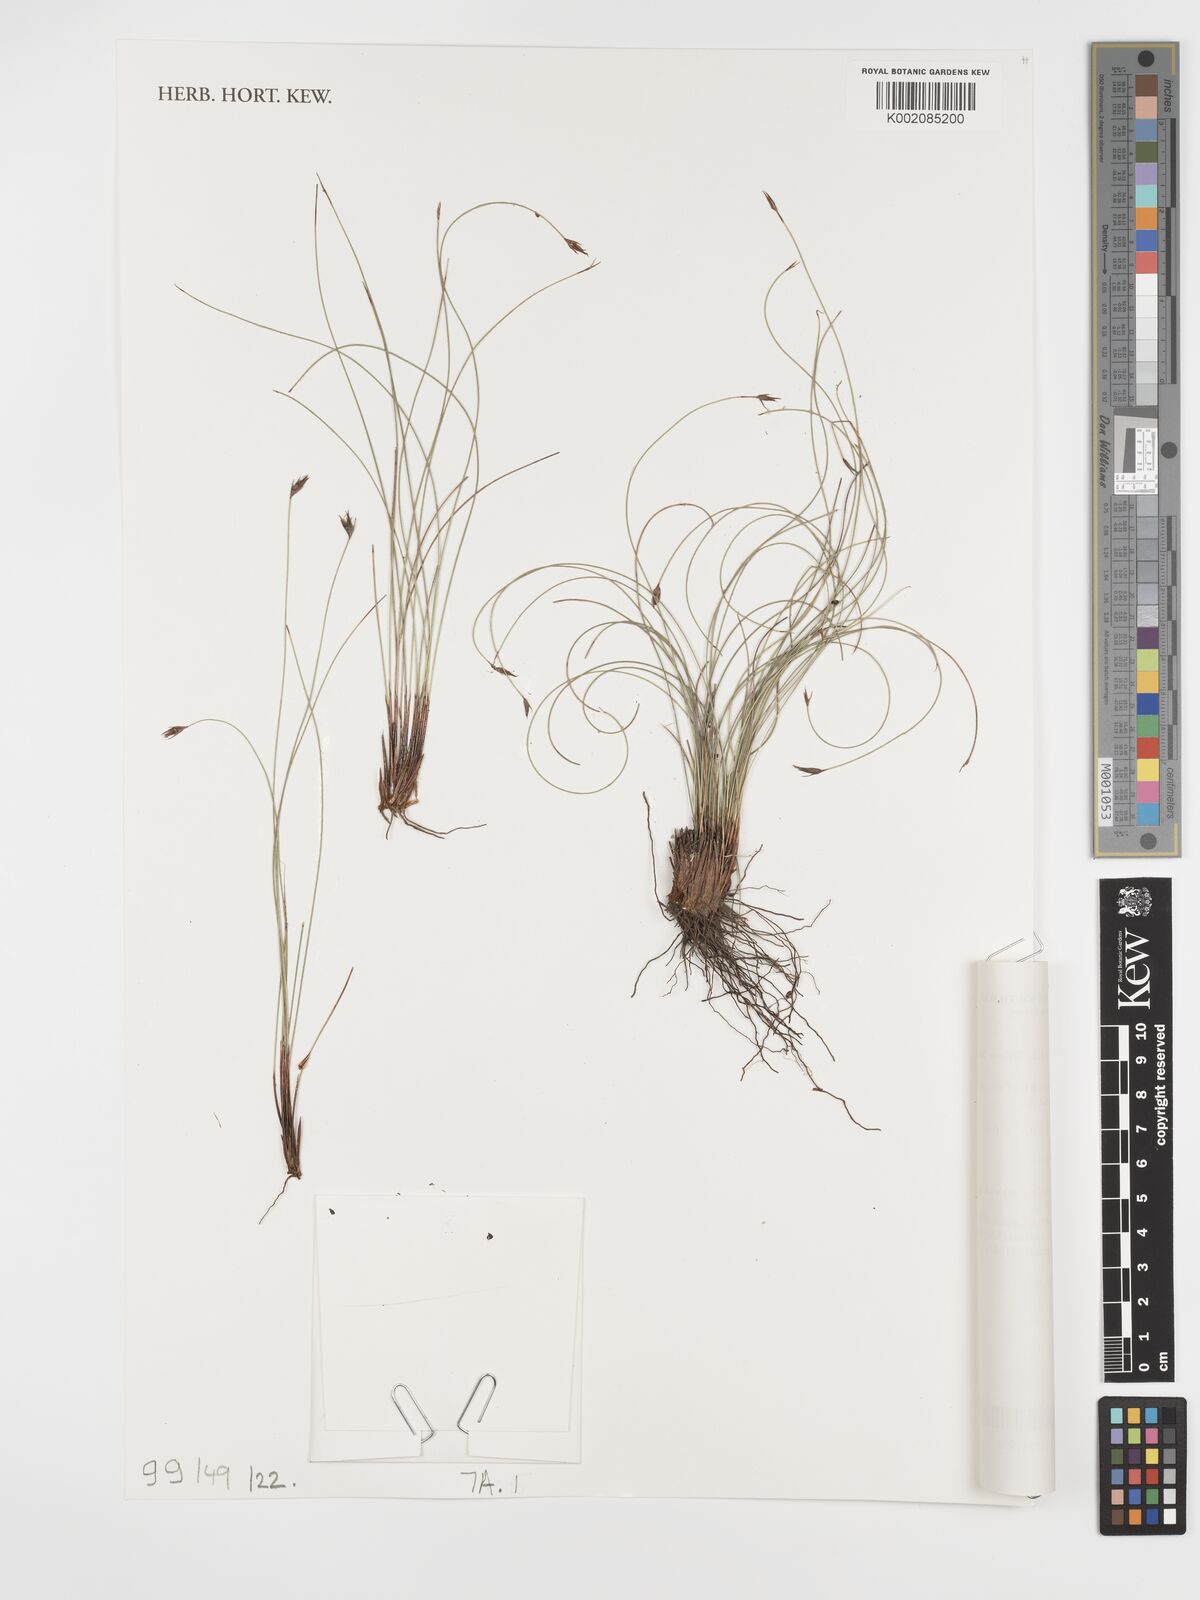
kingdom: Plantae
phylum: Tracheophyta
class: Liliopsida
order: Poales
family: Cyperaceae
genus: Schoenus
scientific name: Schoenus pleiostemoneus
